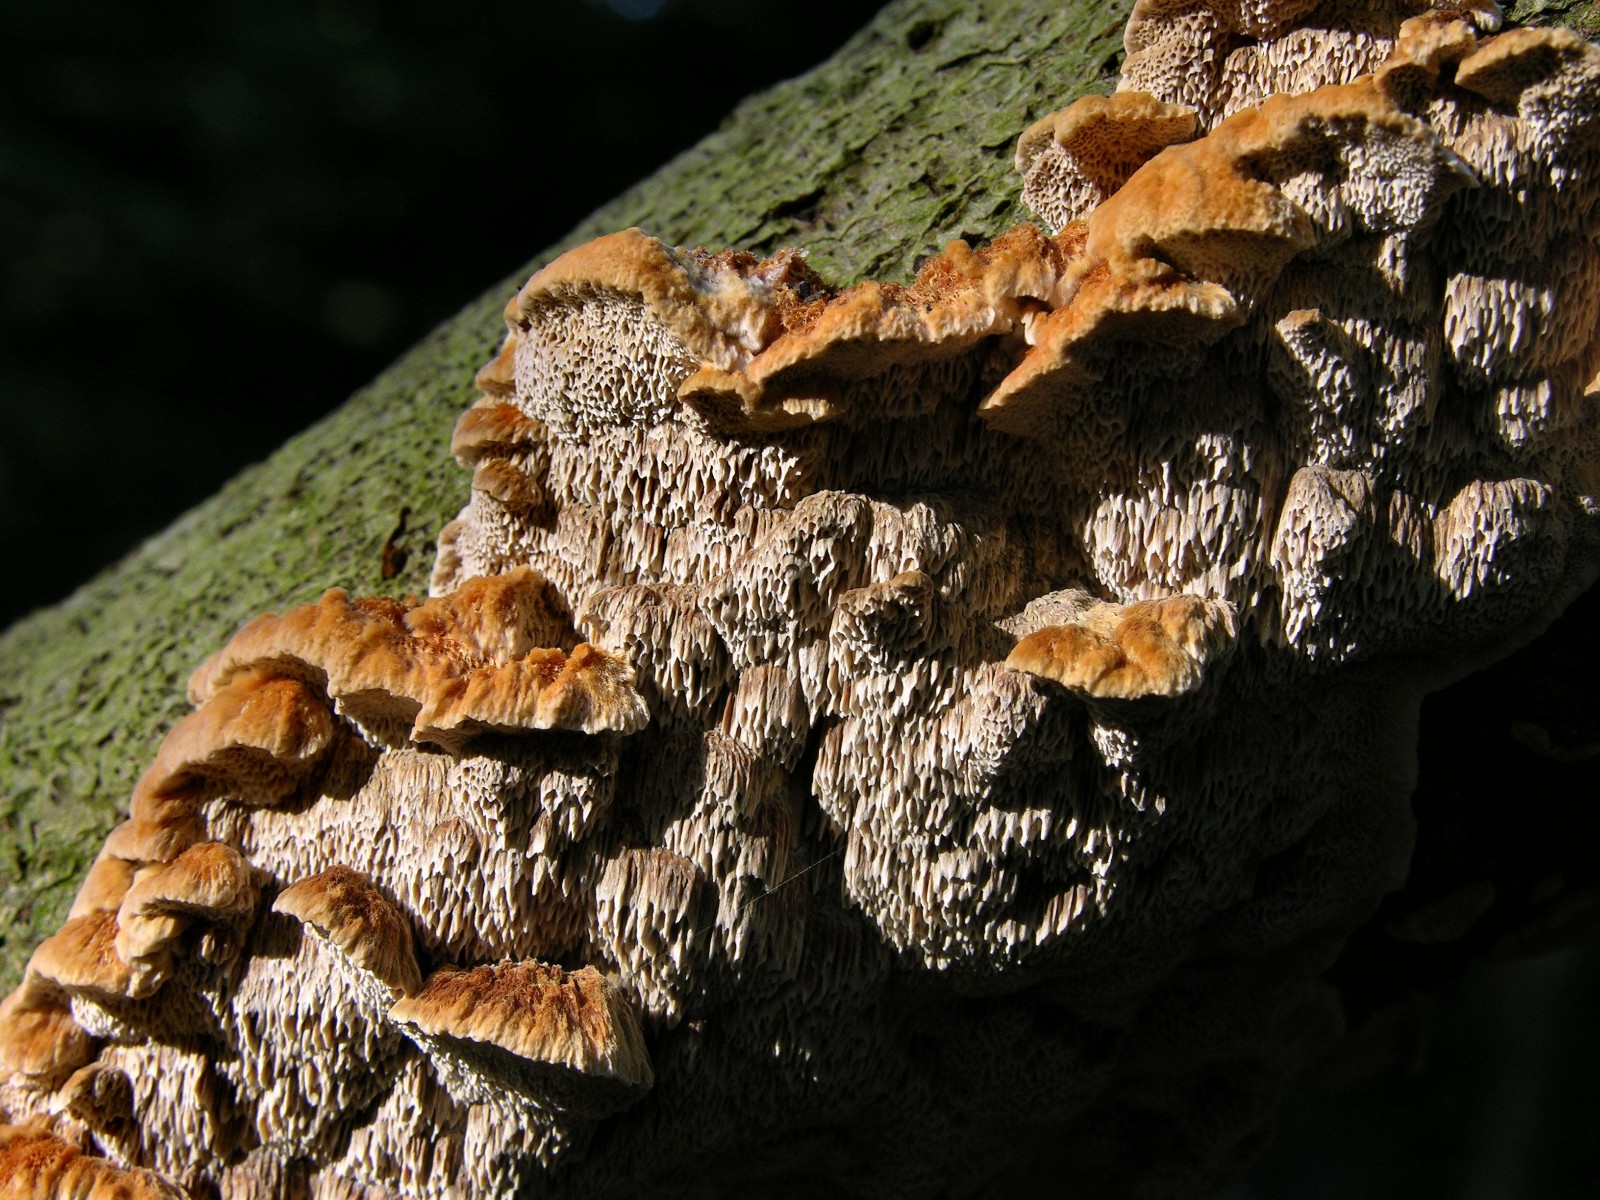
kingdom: Fungi
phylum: Basidiomycota
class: Agaricomycetes
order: Hymenochaetales
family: Hymenochaetaceae
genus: Mensularia
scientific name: Mensularia nodulosa
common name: bøge-spejlporesvamp
